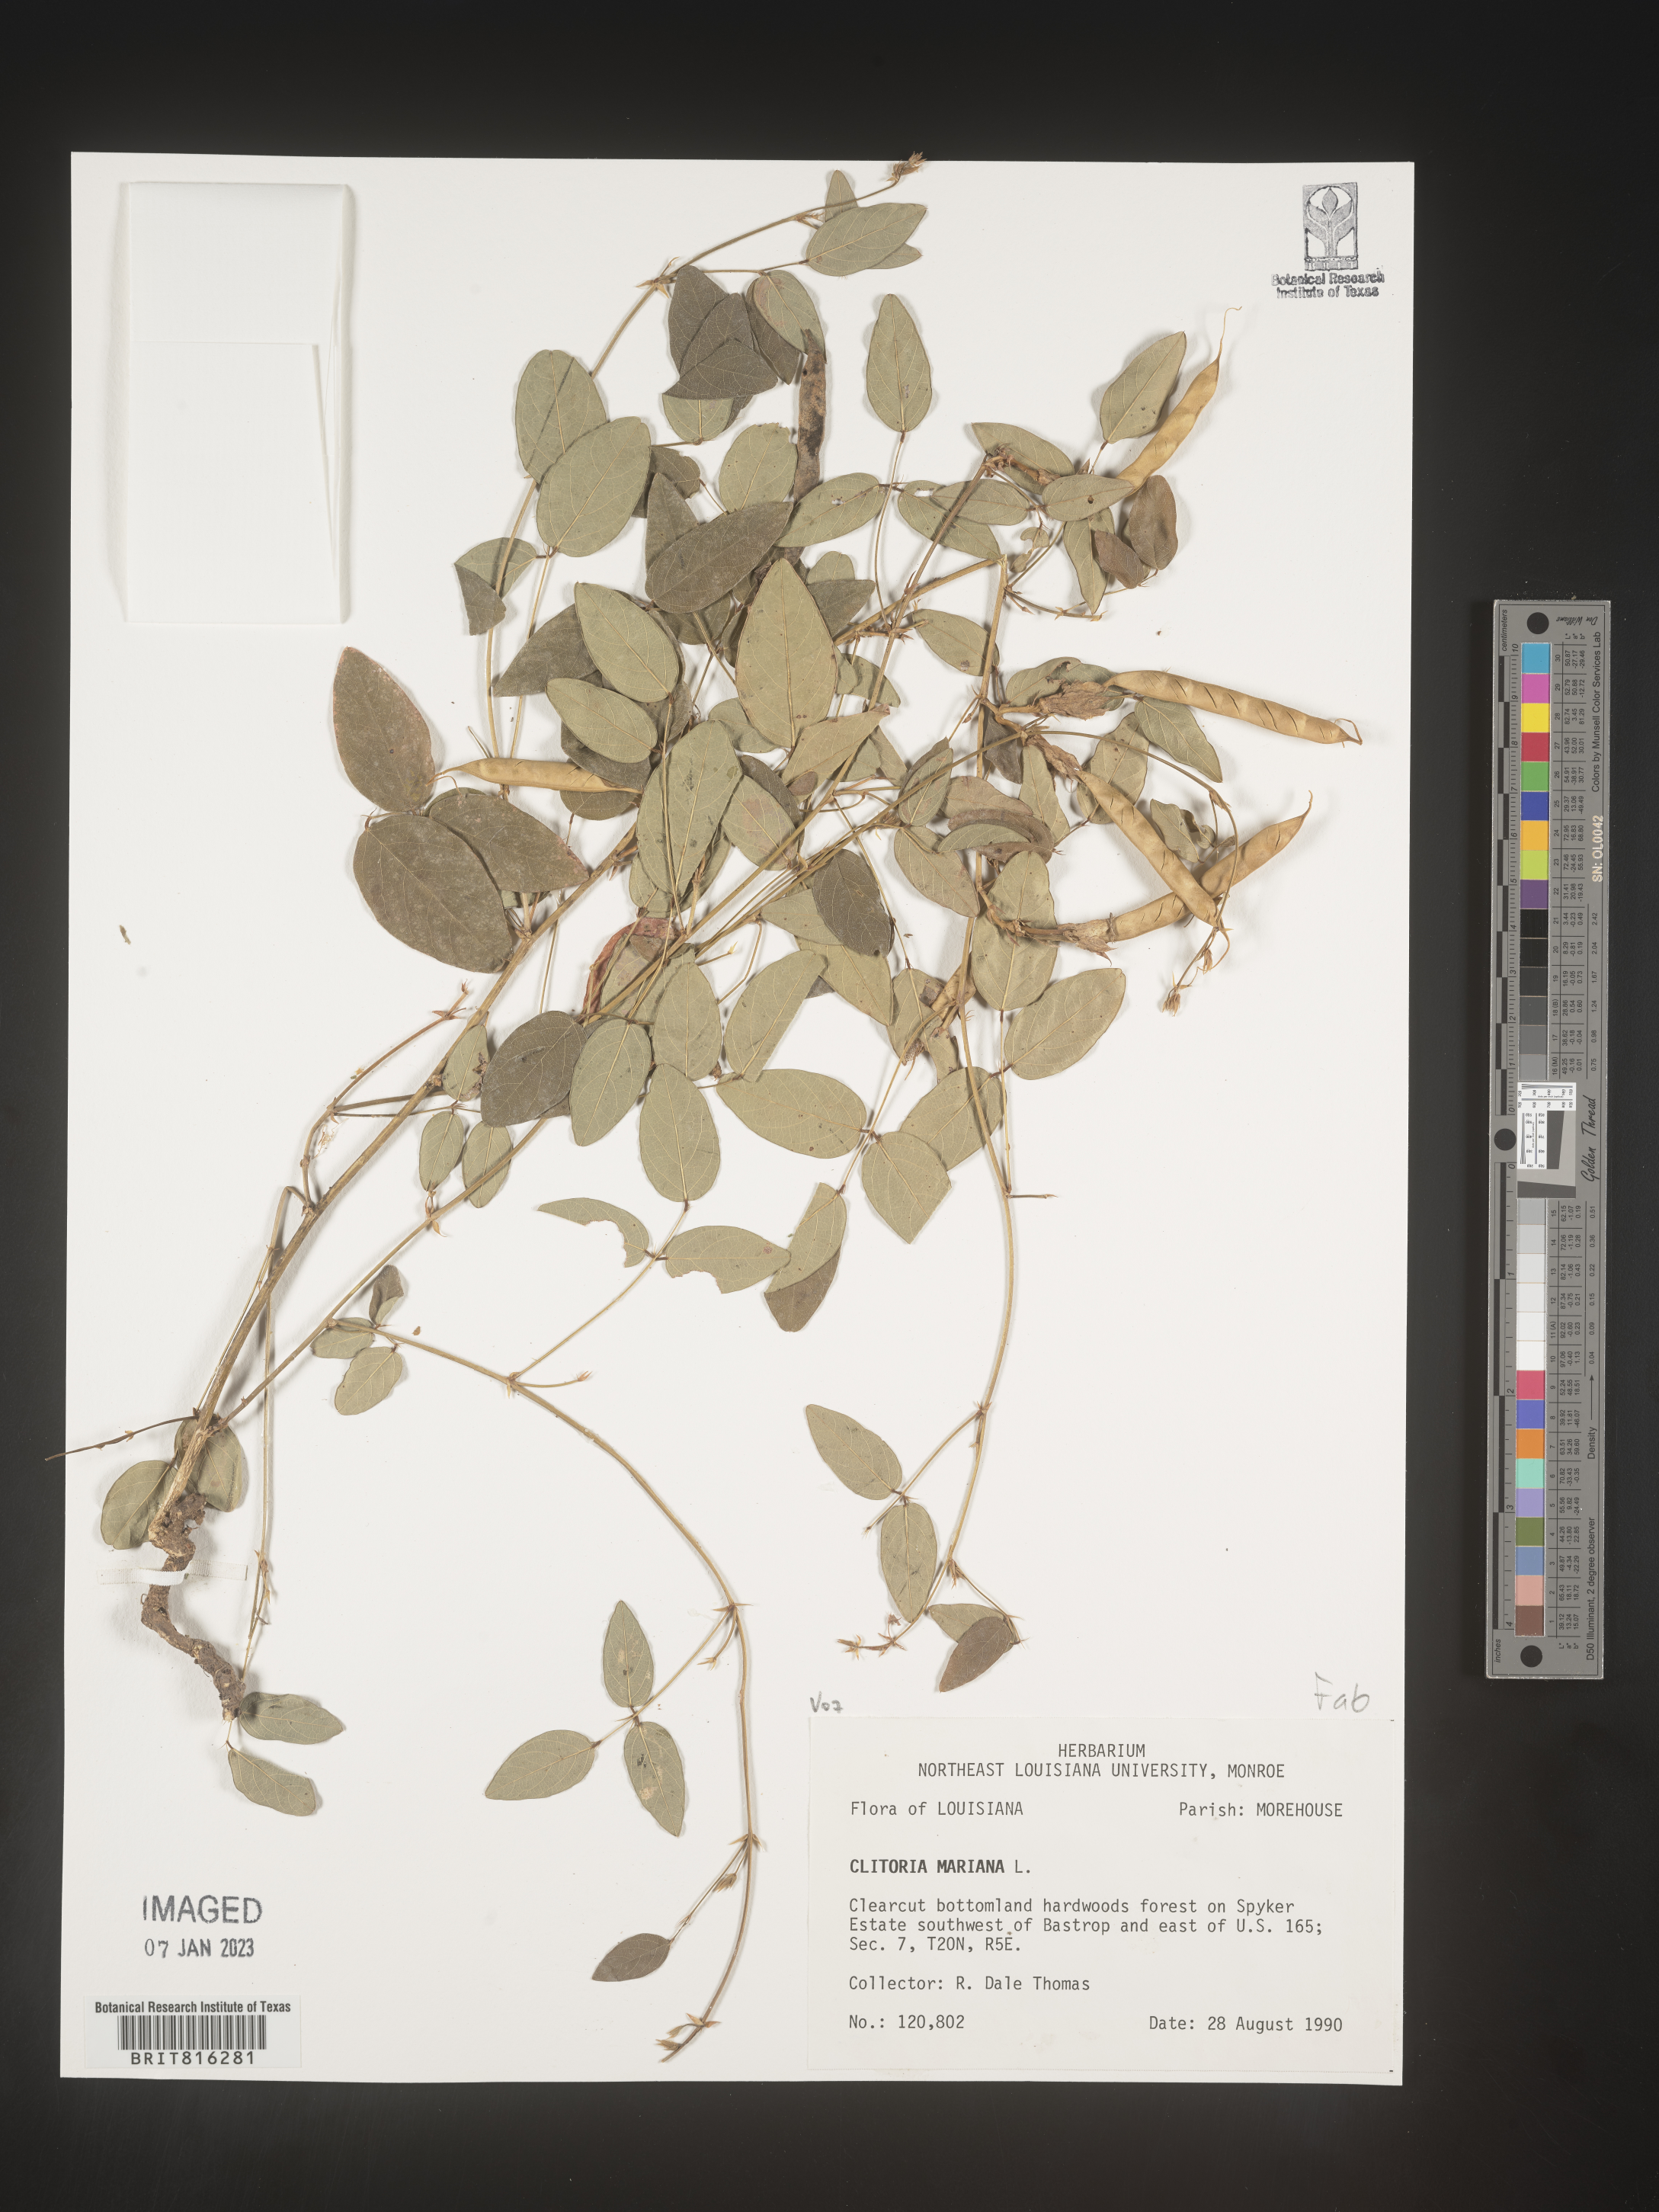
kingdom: Plantae
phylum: Tracheophyta
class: Magnoliopsida
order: Fabales
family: Fabaceae
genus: Clitoria
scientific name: Clitoria mariana
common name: Butterfly-pea
